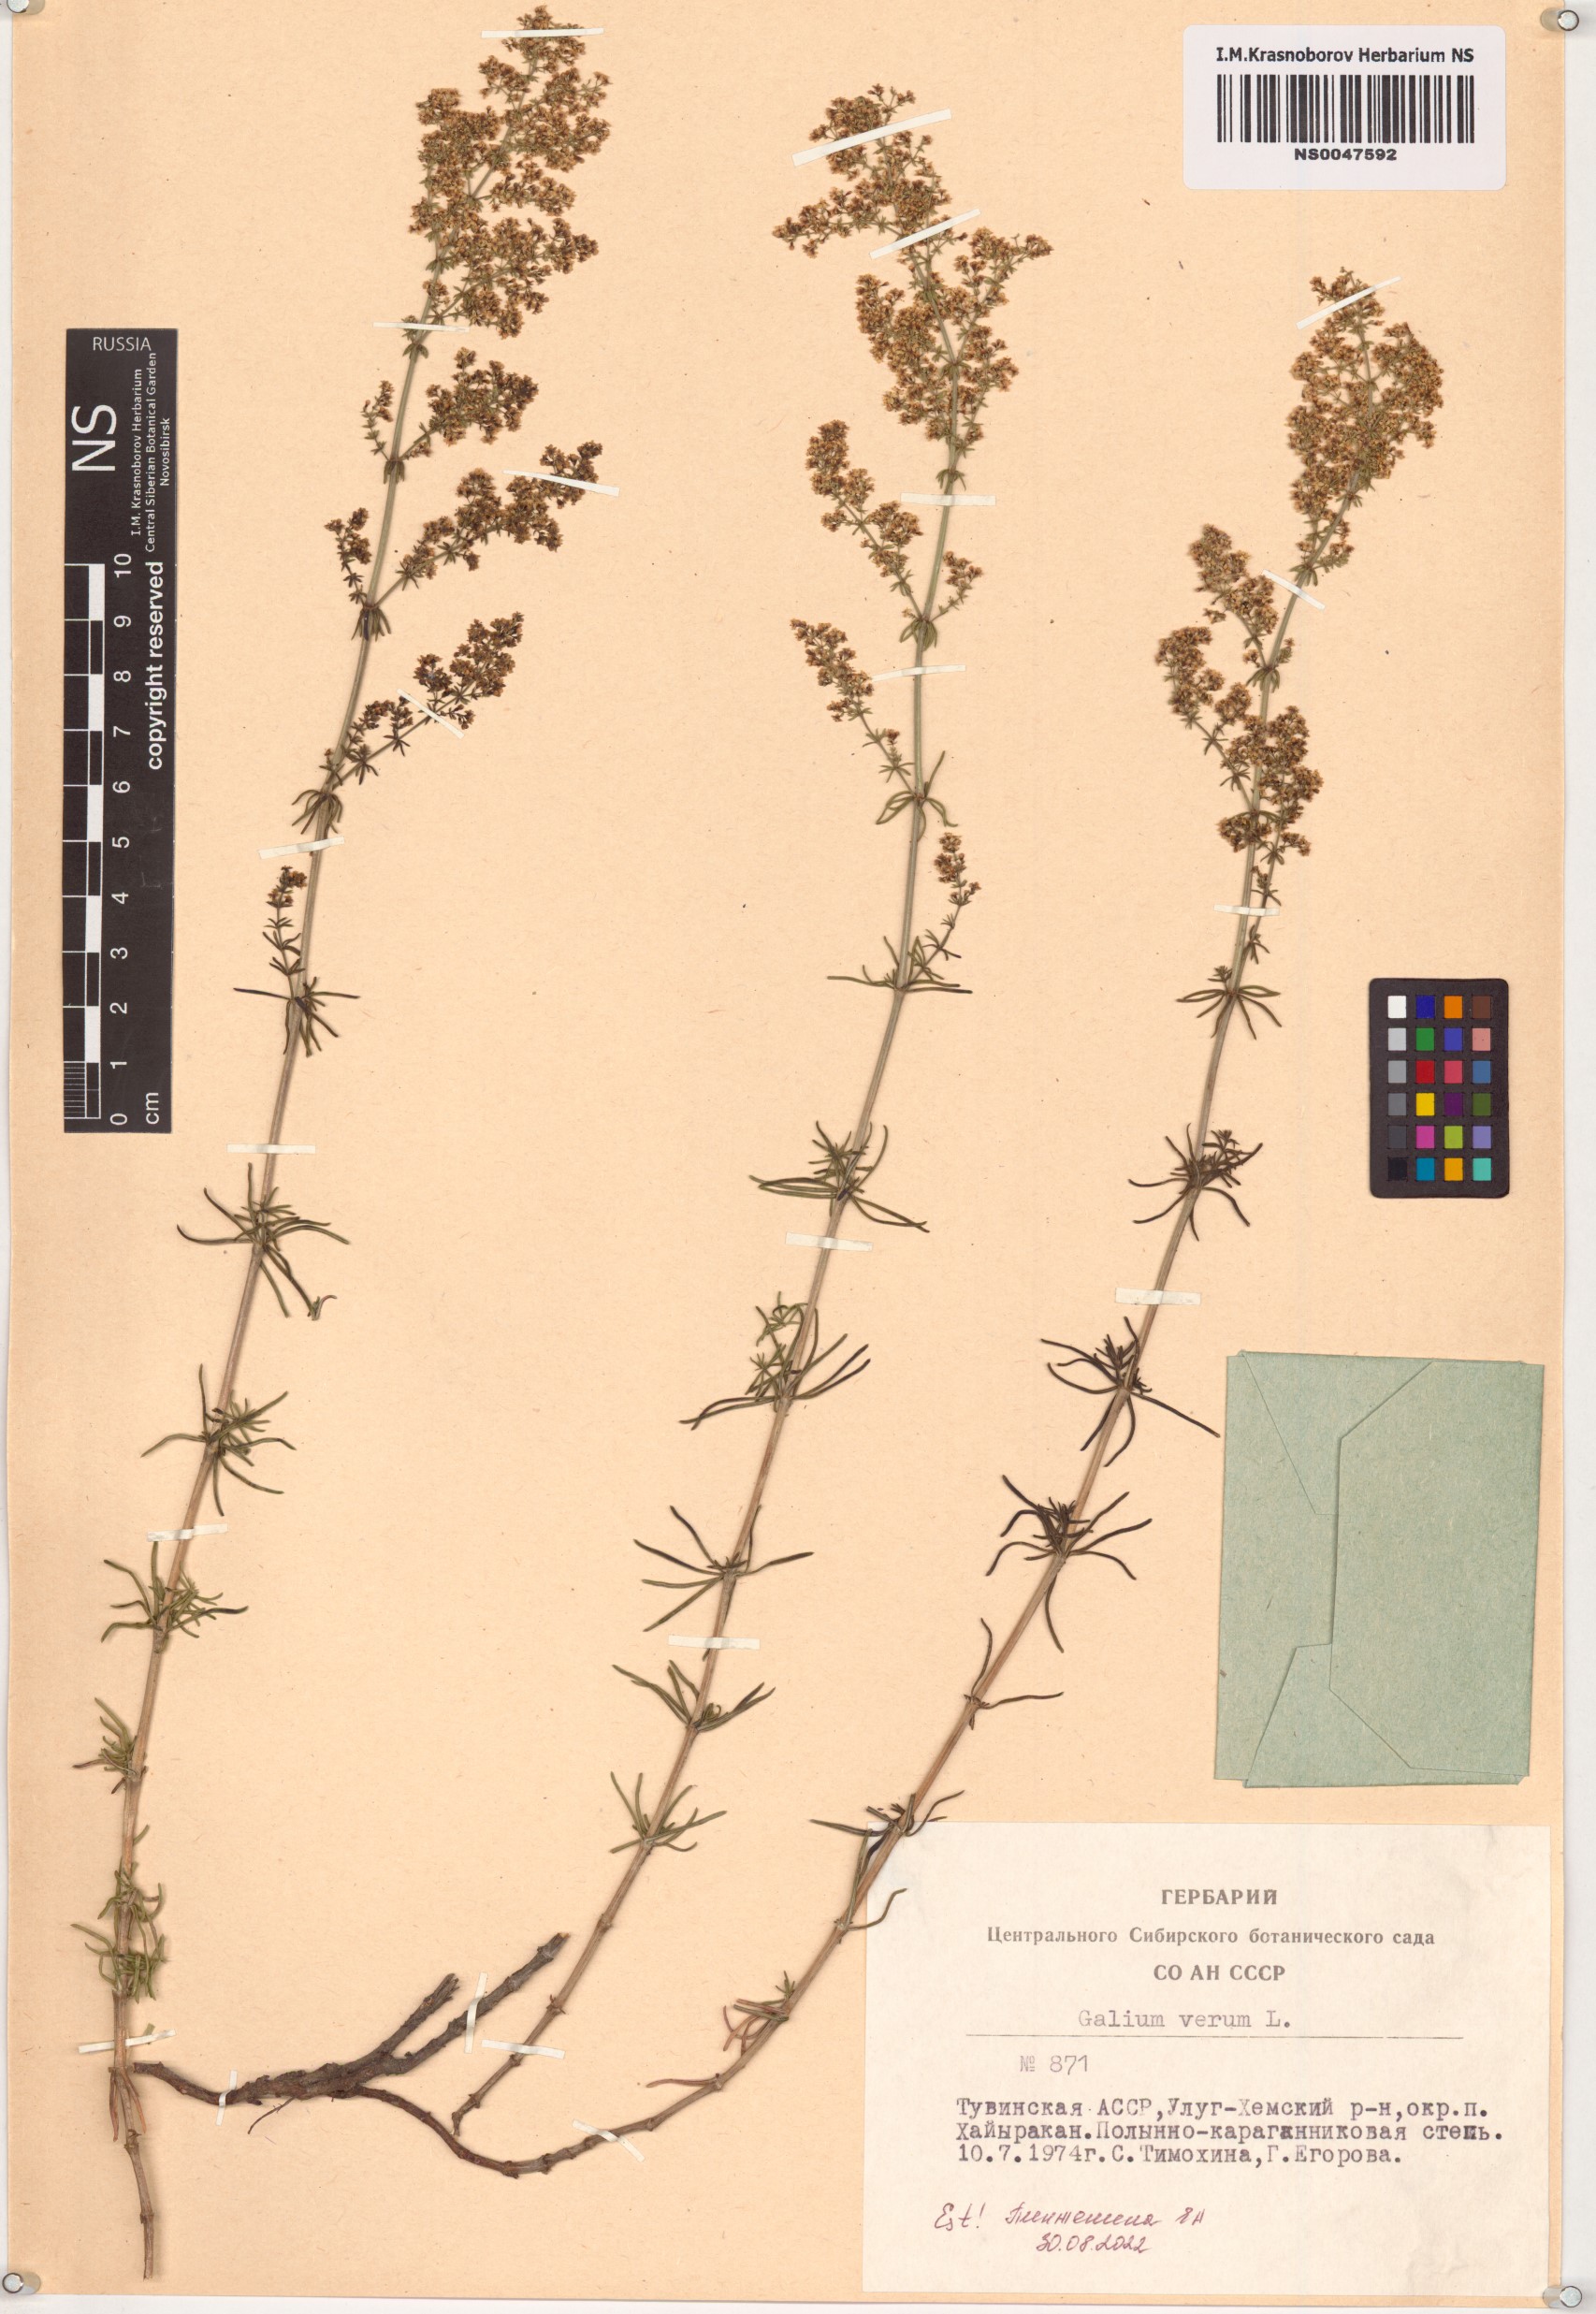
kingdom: Plantae
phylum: Tracheophyta
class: Magnoliopsida
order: Gentianales
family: Rubiaceae
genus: Galium
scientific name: Galium verum
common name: Lady's bedstraw
